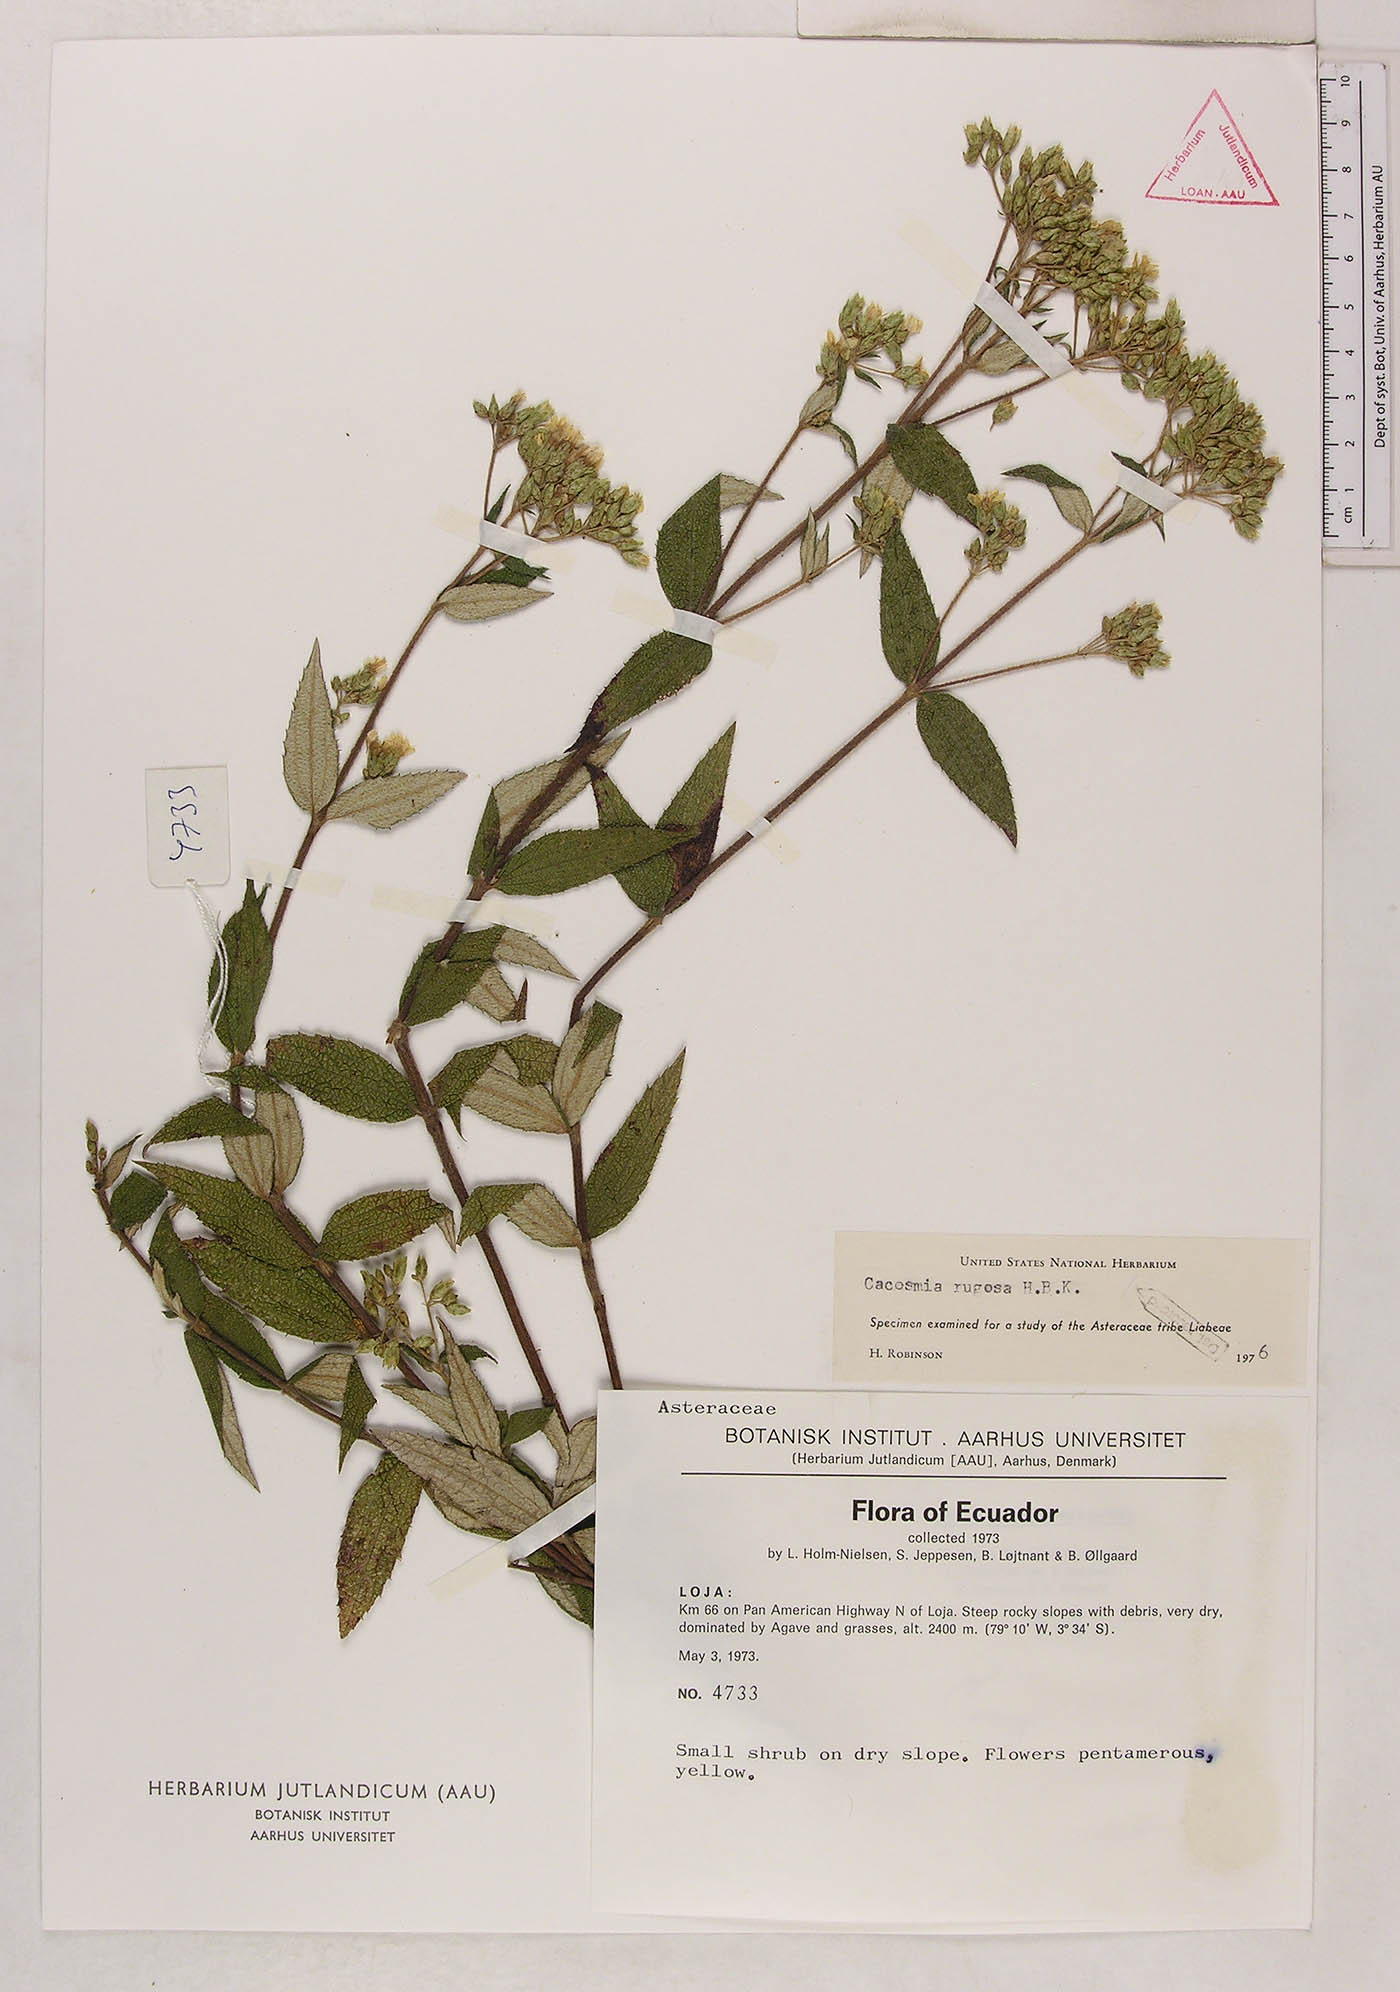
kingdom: Plantae
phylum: Tracheophyta
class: Magnoliopsida
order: Asterales
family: Asteraceae
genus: Cacosmia
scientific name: Cacosmia rugosa
